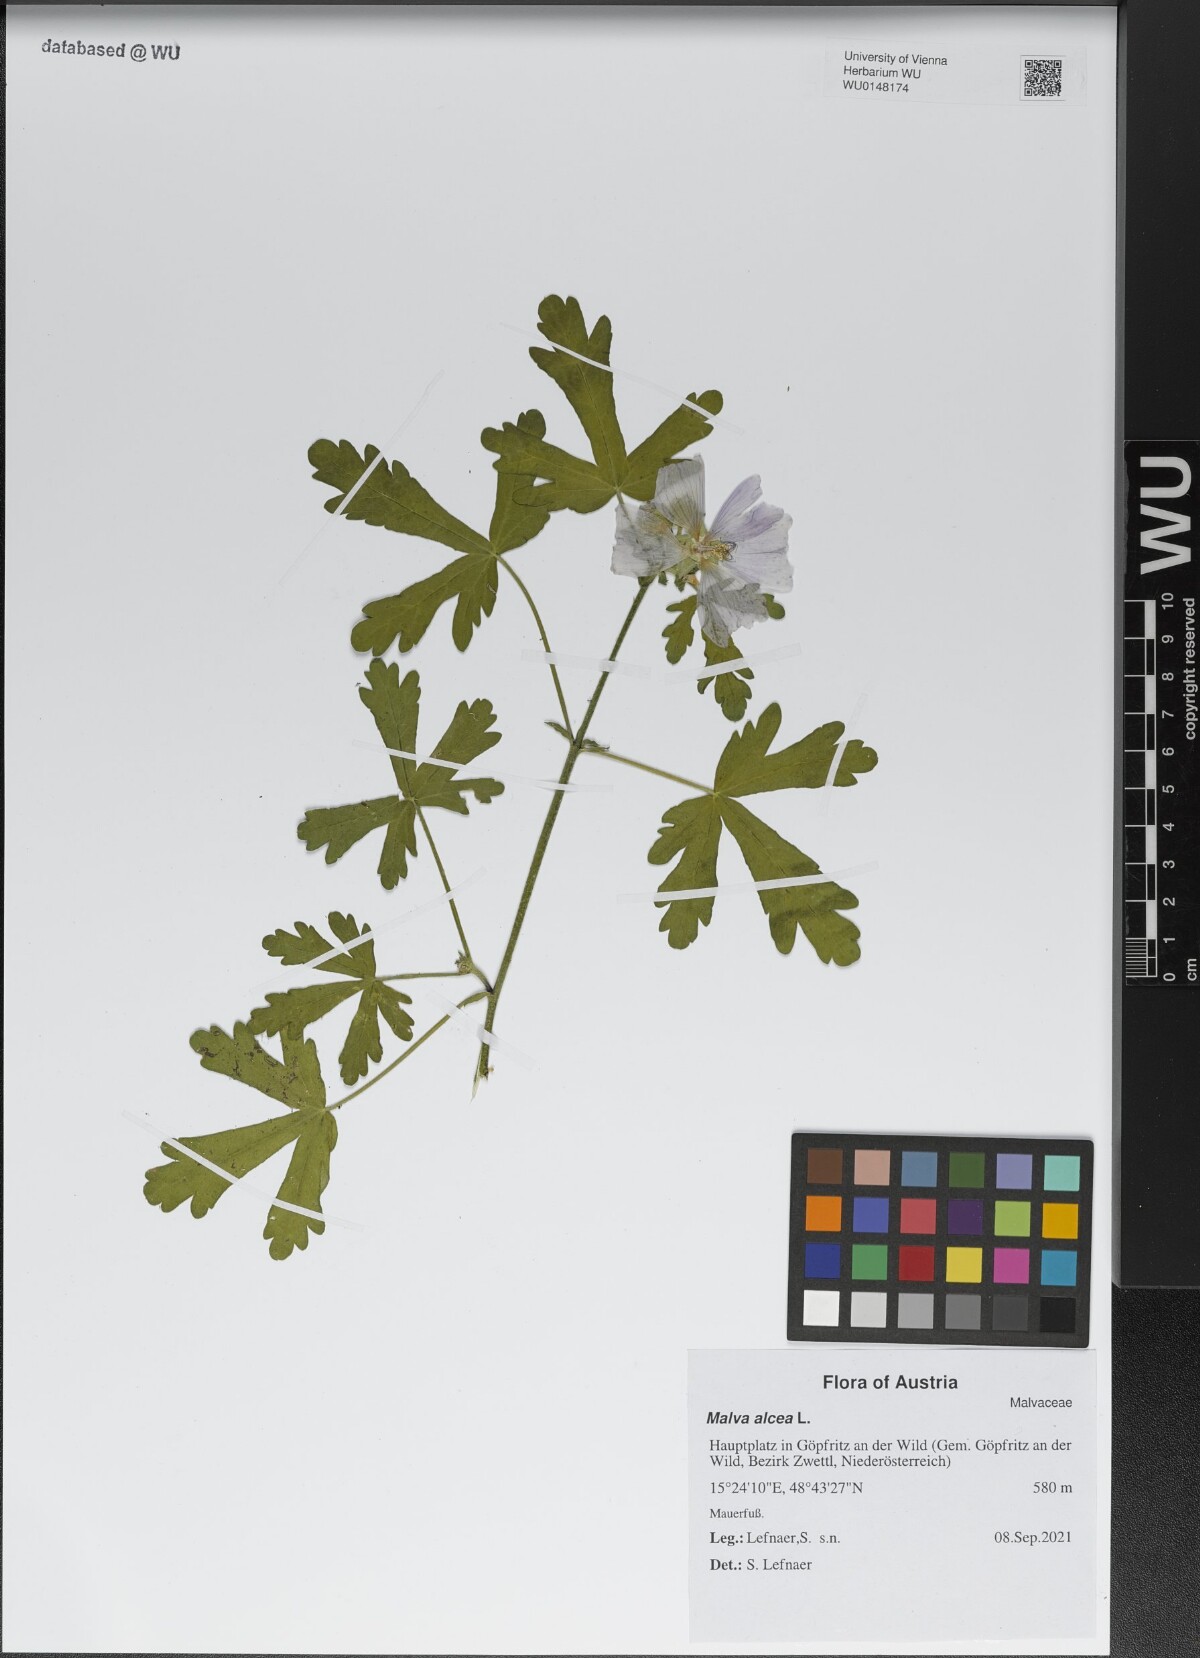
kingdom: Plantae
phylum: Tracheophyta
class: Magnoliopsida
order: Malvales
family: Malvaceae
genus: Malva
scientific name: Malva alcea
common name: Greater musk-mallow
